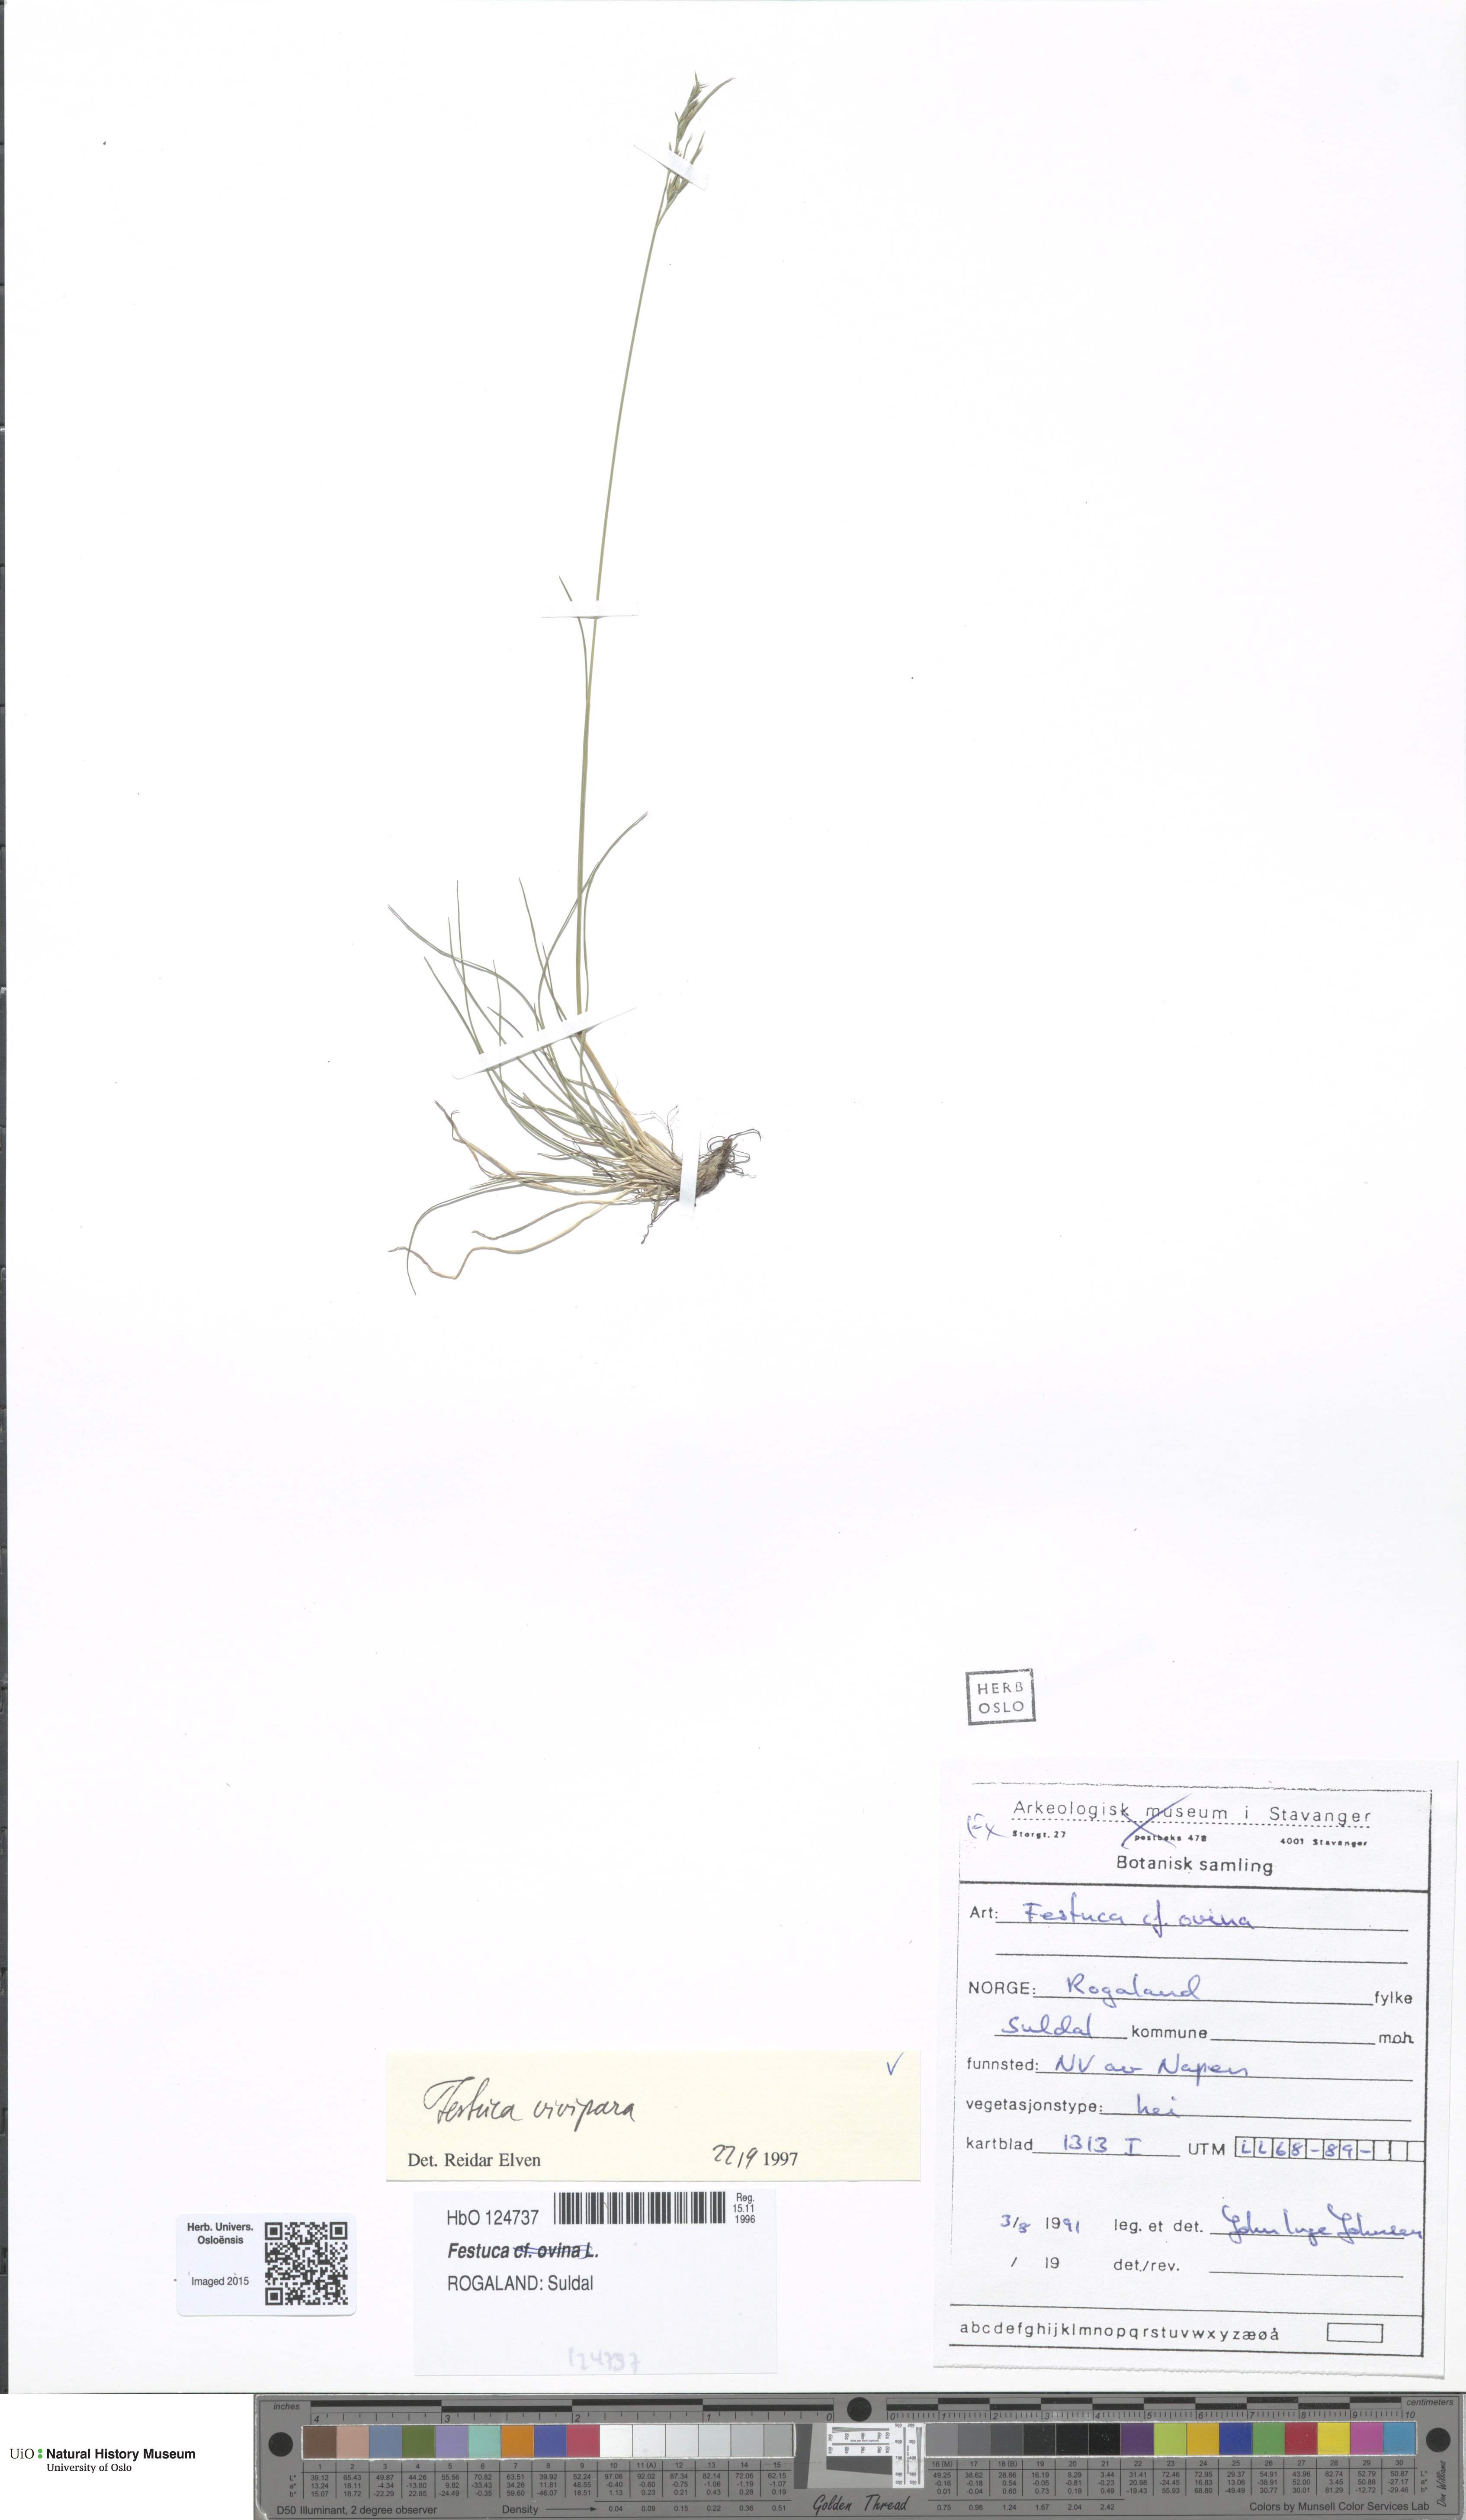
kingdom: Plantae
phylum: Tracheophyta
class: Liliopsida
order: Poales
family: Poaceae
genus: Festuca
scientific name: Festuca vivipara
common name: Viviparous sheep's-fescue
